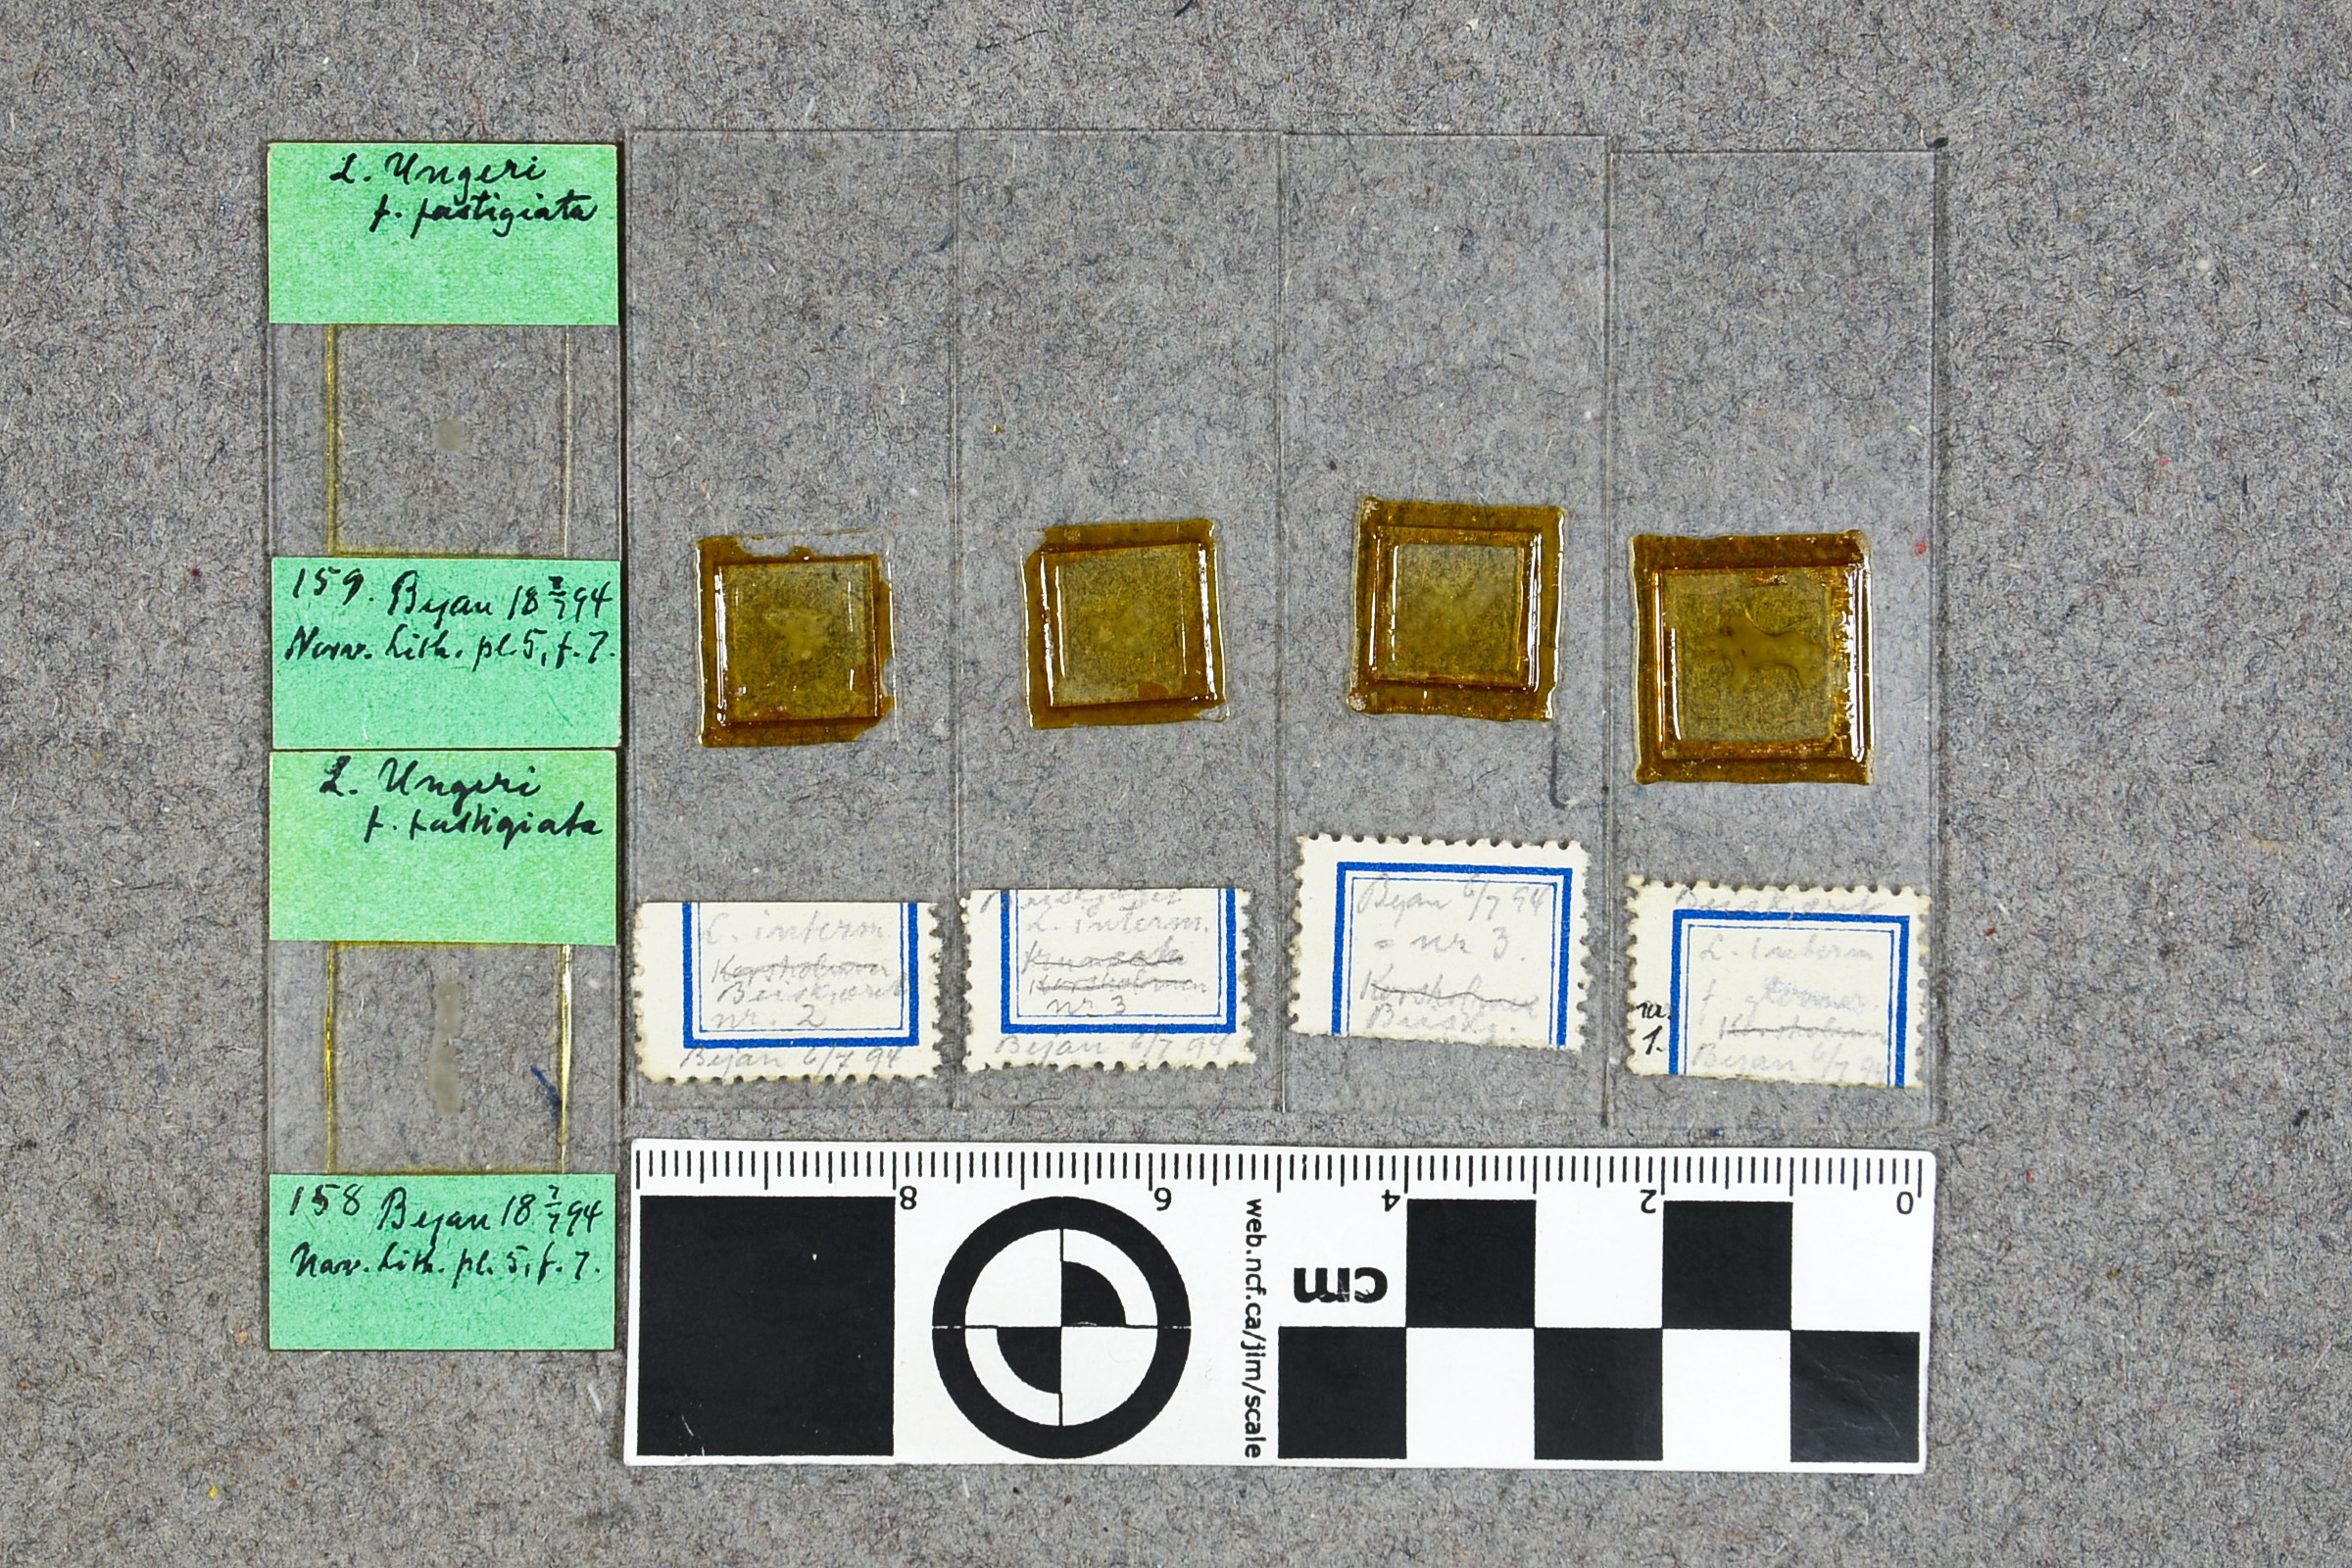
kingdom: Plantae
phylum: Rhodophyta
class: Florideophyceae
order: Corallinales
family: Hapalidiaceae
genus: Lithothamnion
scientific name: Lithothamnion dimorphum
